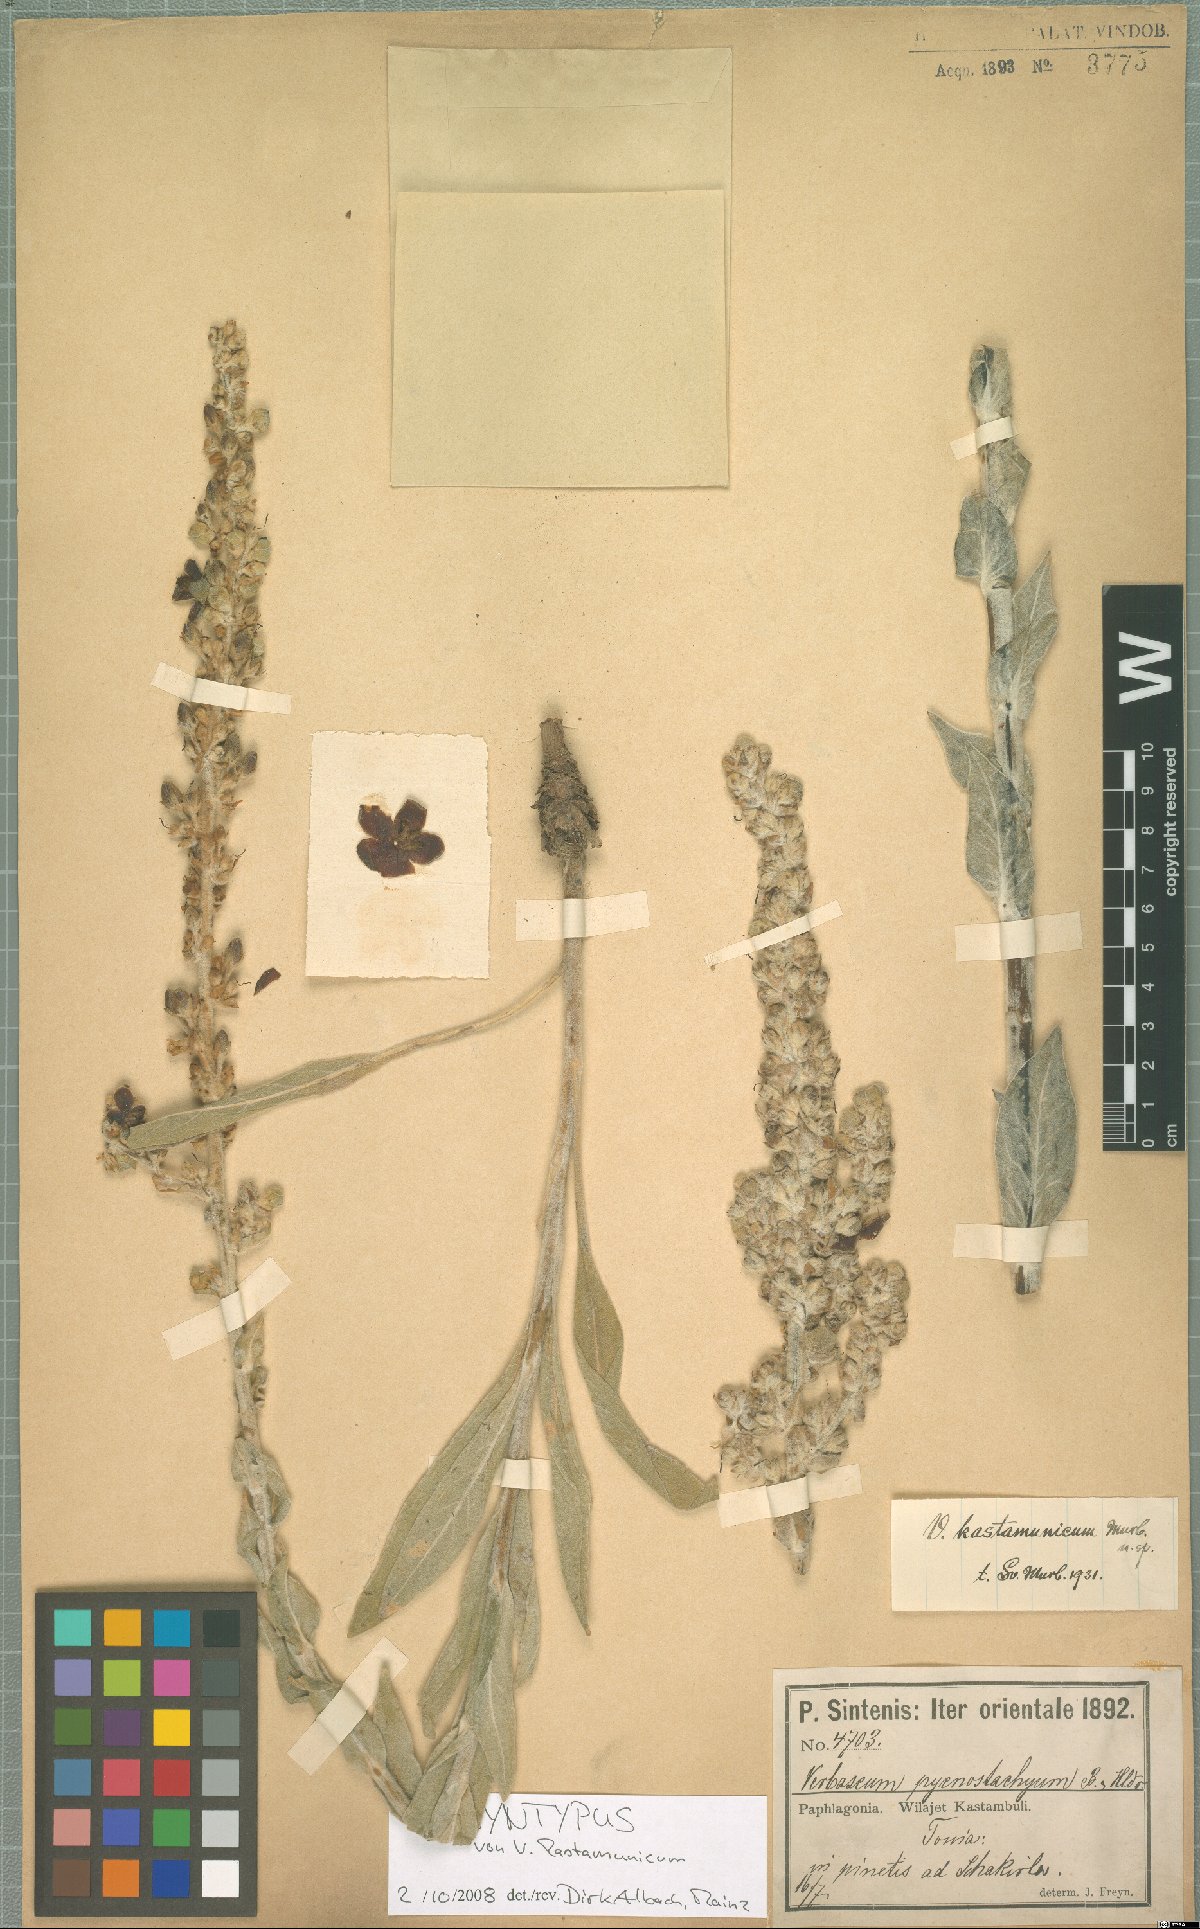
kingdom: Plantae
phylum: Tracheophyta
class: Magnoliopsida
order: Lamiales
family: Scrophulariaceae
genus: Verbascum
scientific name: Verbascum kastamunicum
